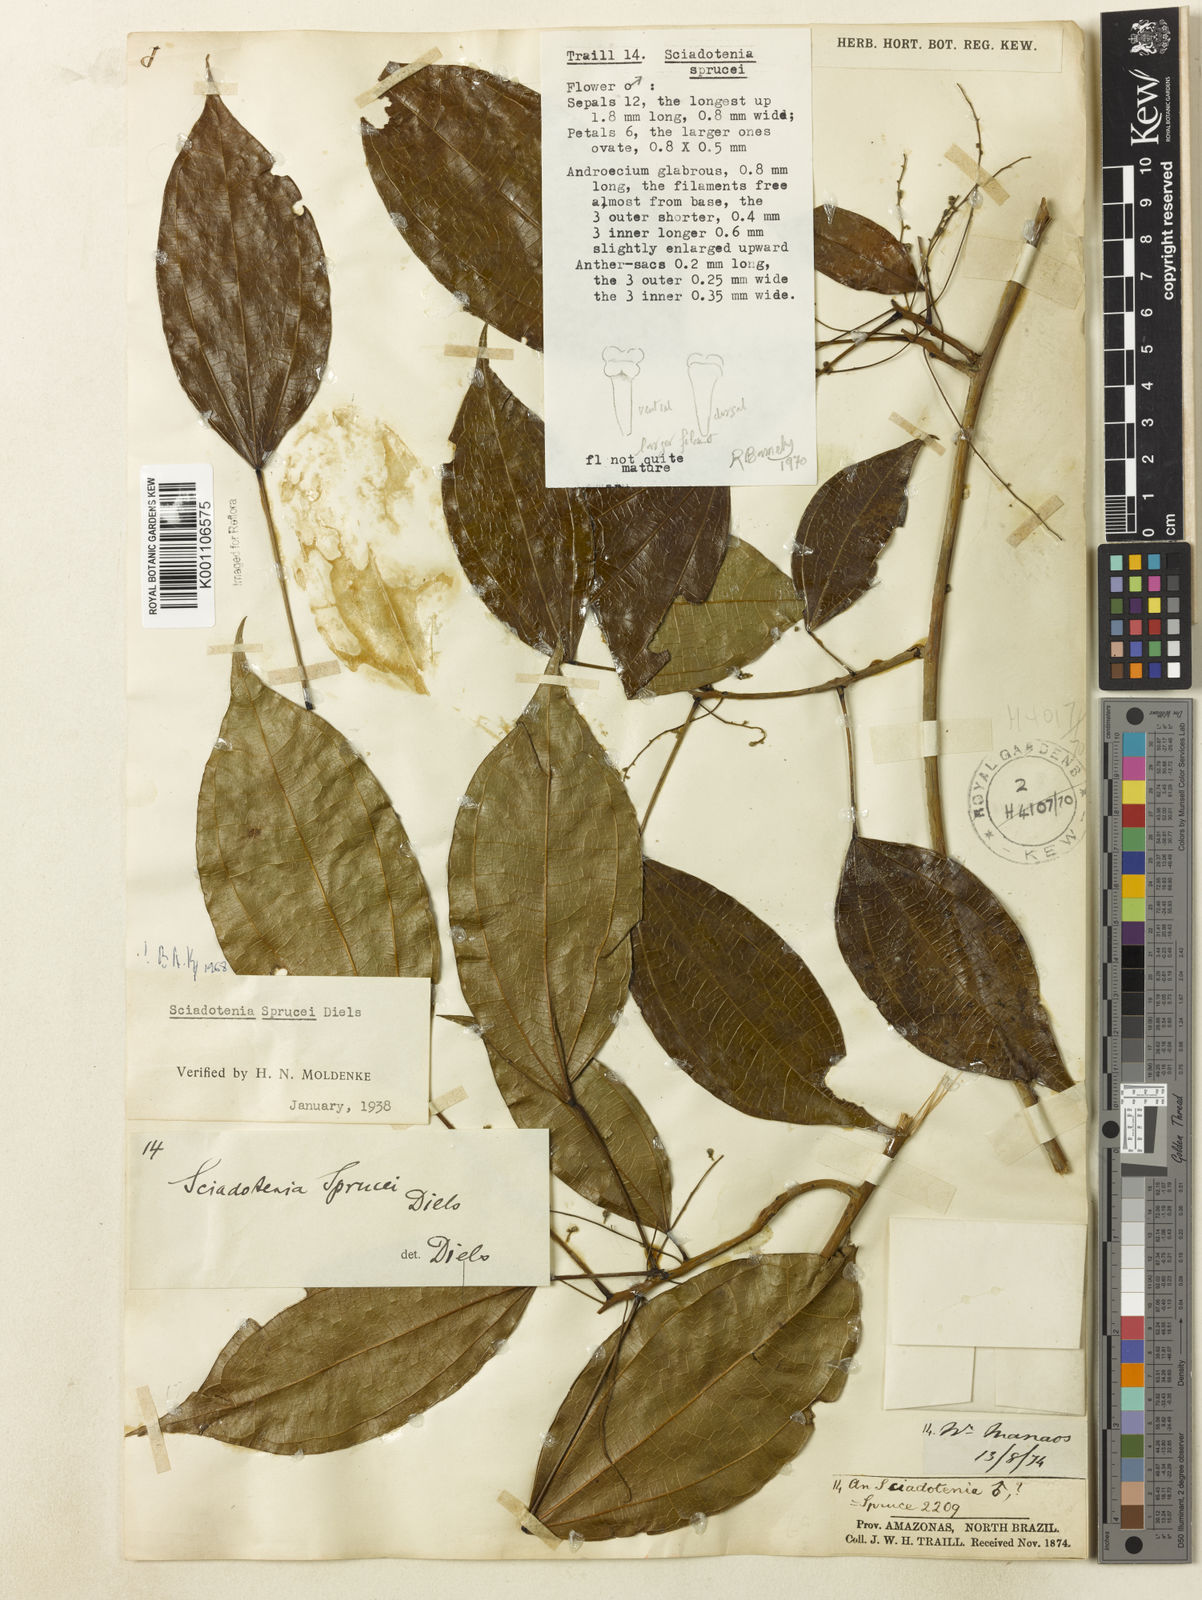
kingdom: Plantae
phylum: Tracheophyta
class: Magnoliopsida
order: Ranunculales
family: Menispermaceae
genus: Sciadotenia
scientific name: Sciadotenia
